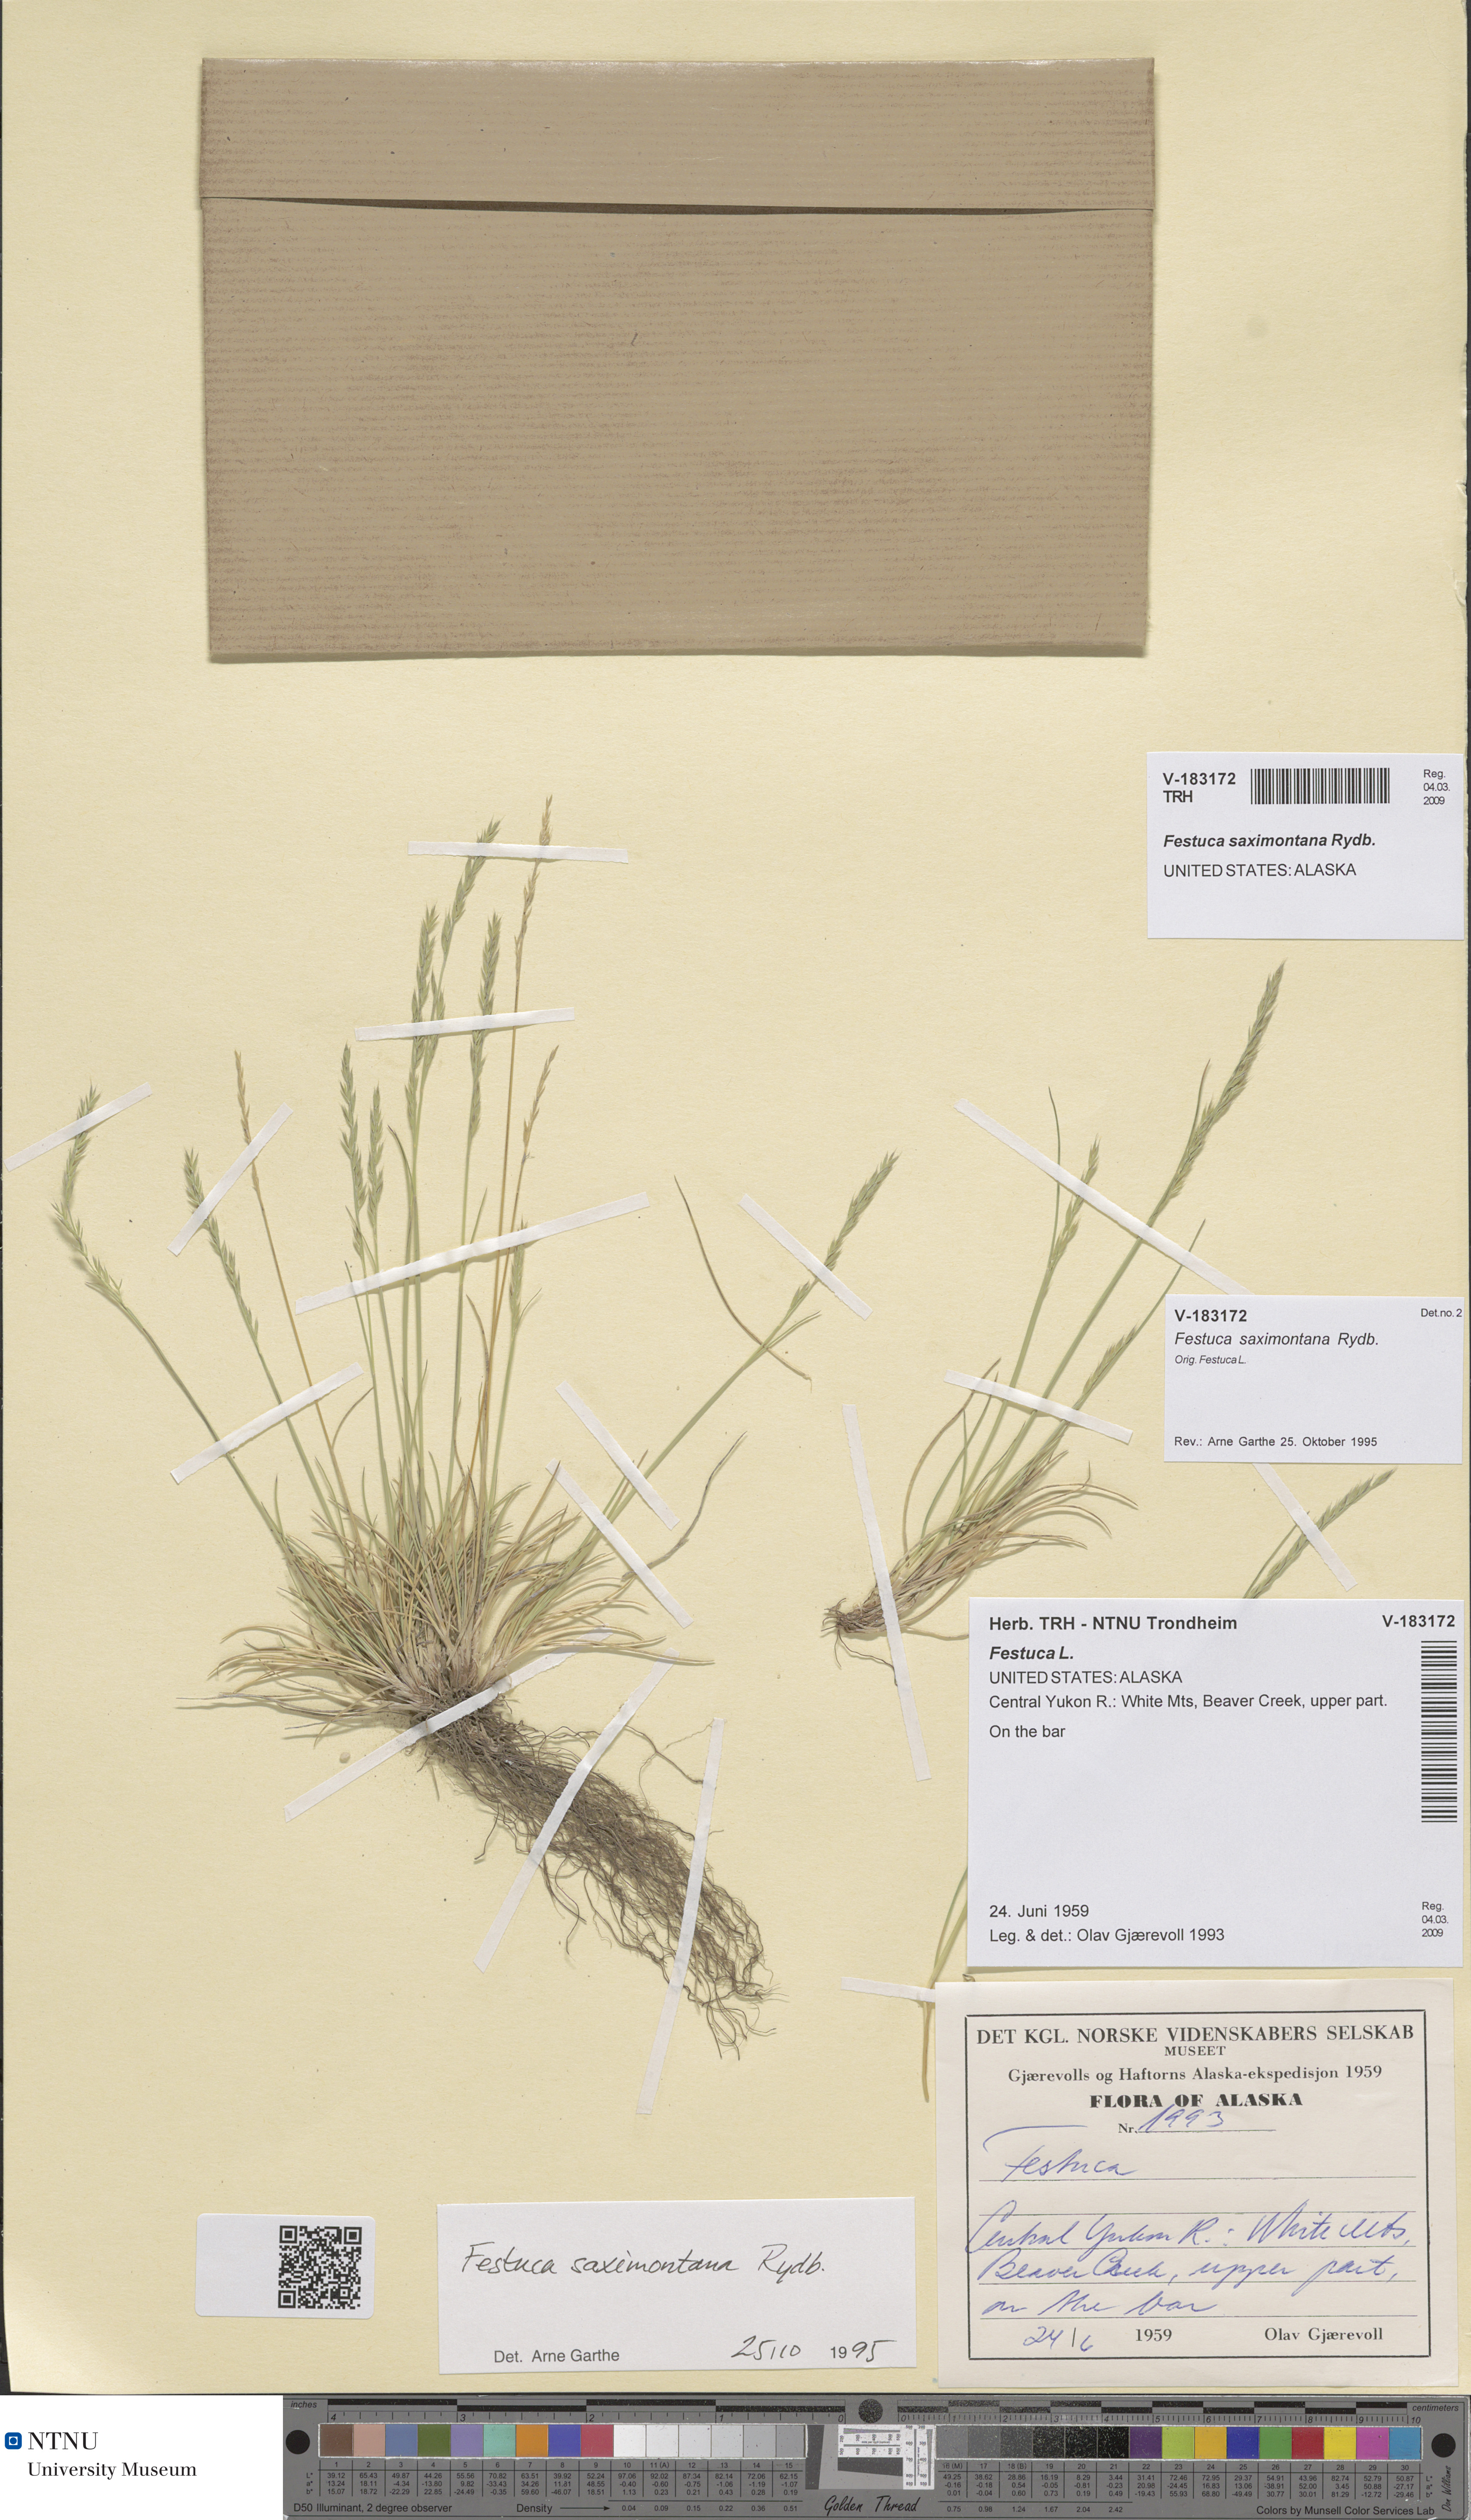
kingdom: Plantae
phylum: Tracheophyta
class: Liliopsida
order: Poales
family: Poaceae
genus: Festuca
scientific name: Festuca saximontana
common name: Mountain fescue
